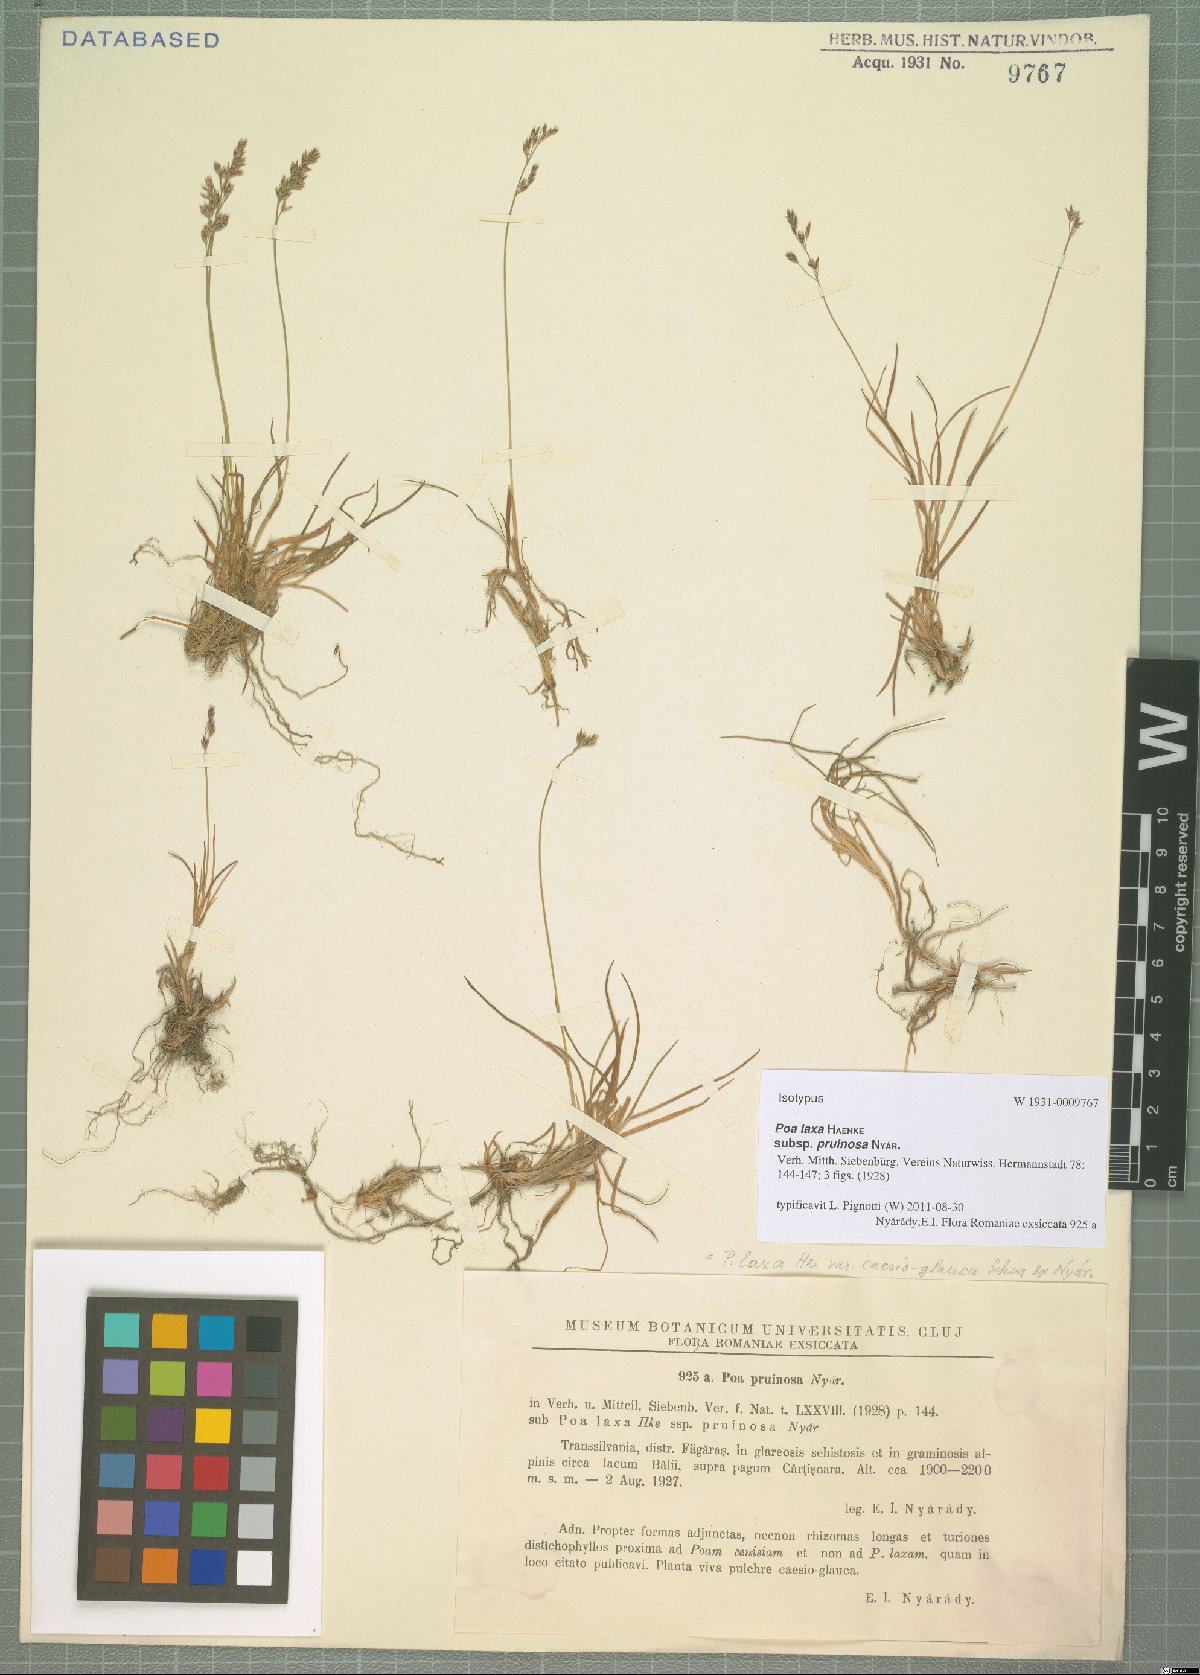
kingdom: Plantae
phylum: Tracheophyta
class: Liliopsida
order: Poales
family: Poaceae
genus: Poa
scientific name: Poa nyaradyana
